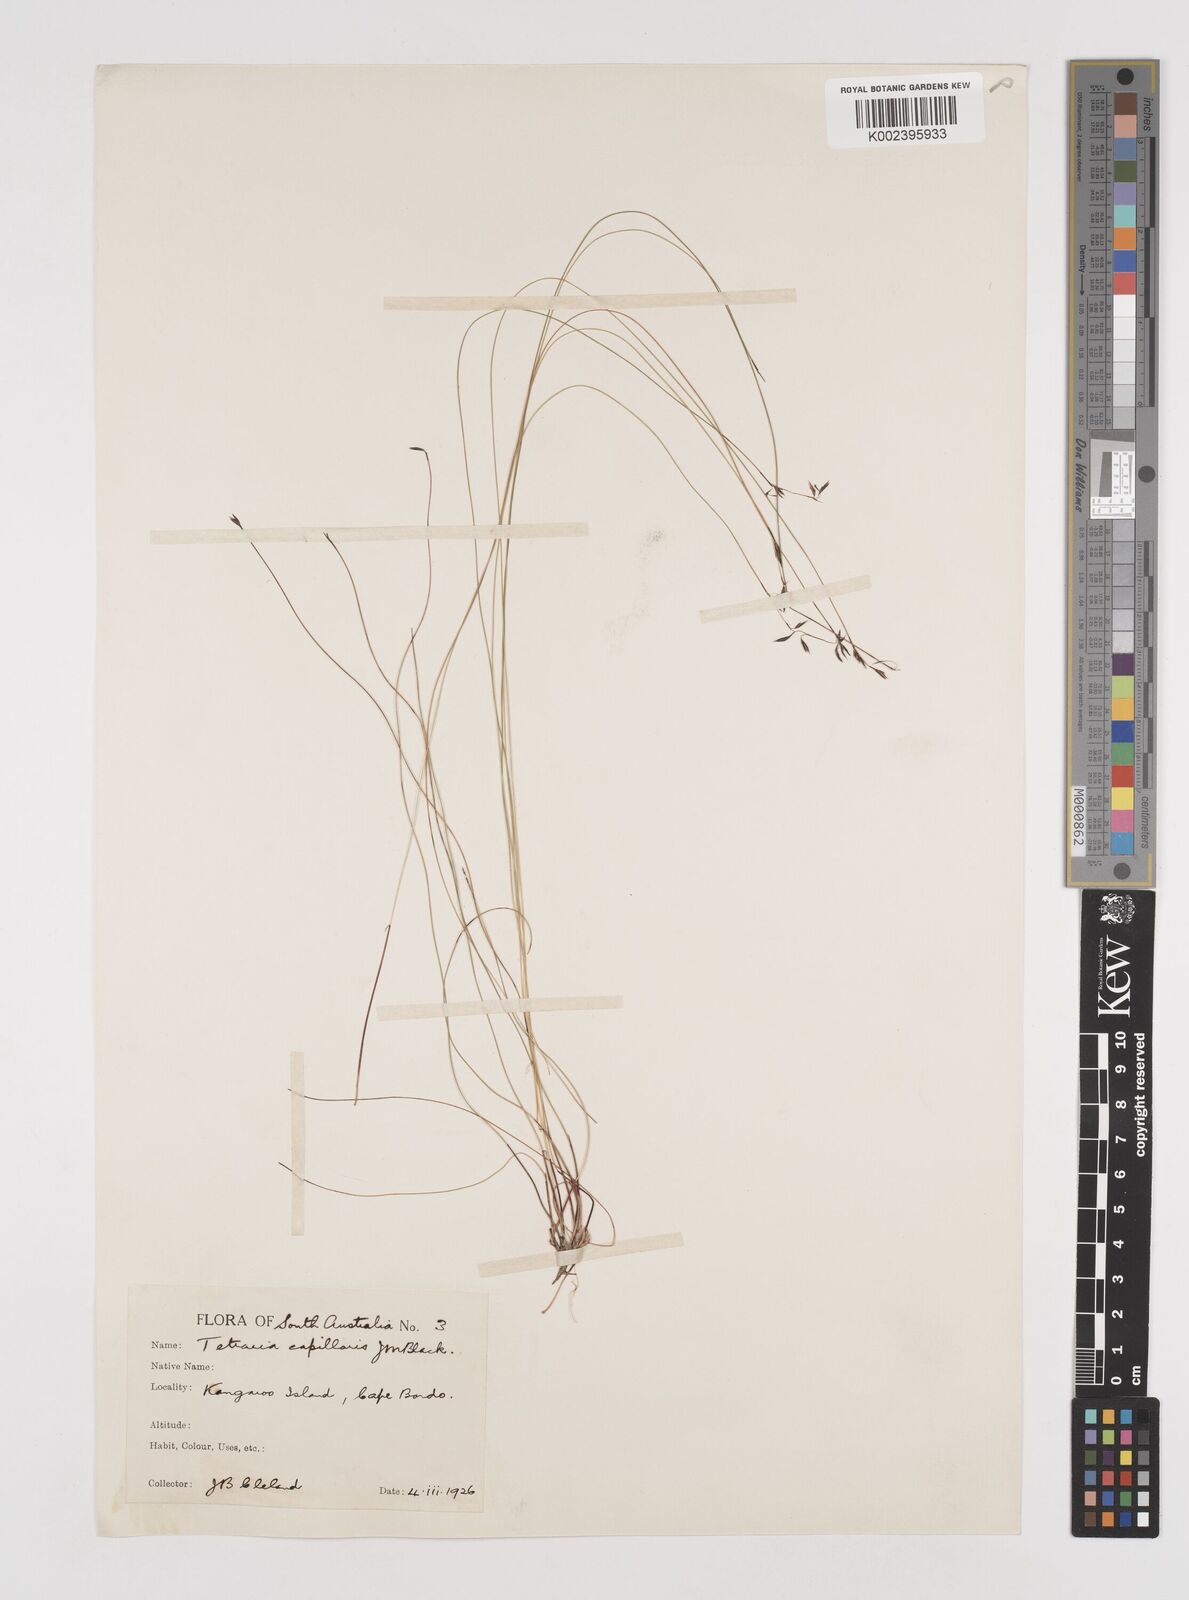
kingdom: Plantae
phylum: Tracheophyta
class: Liliopsida
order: Poales
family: Cyperaceae
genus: Tetraria
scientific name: Tetraria capillaris
